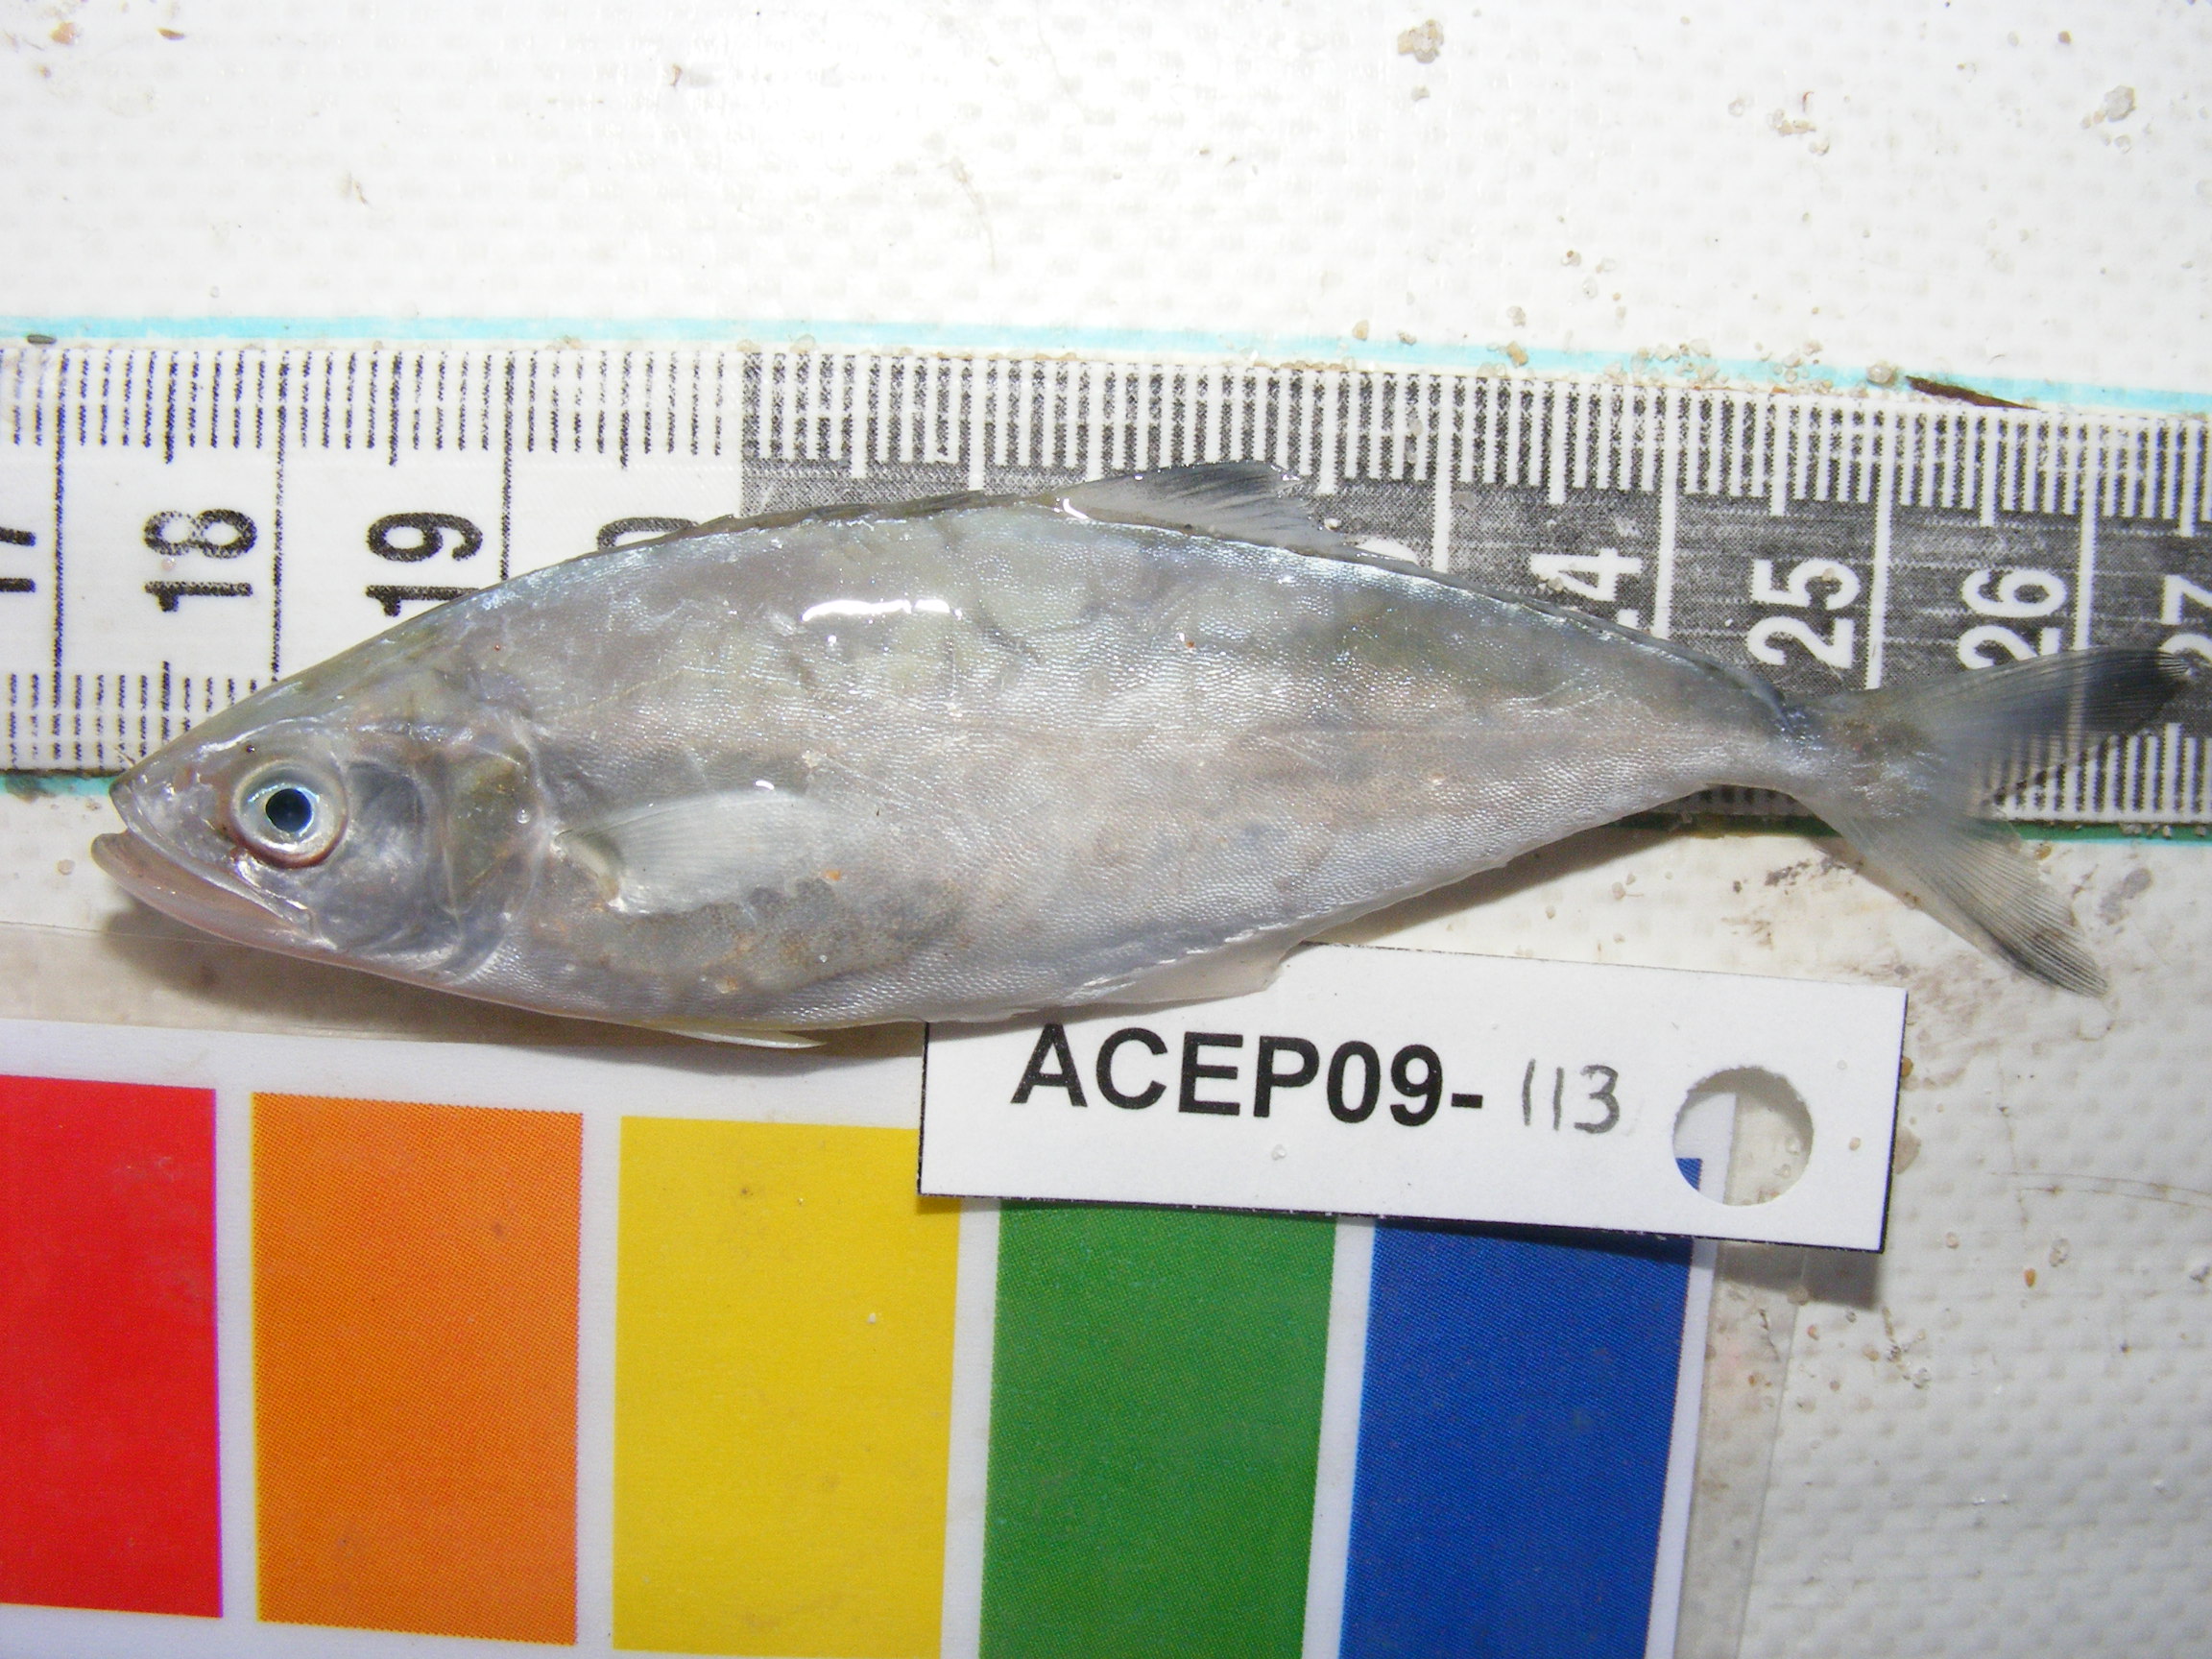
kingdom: Animalia
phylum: Chordata
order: Perciformes
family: Carangidae
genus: Scomberoides
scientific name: Scomberoides commersonnianus
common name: Talang queenfish
